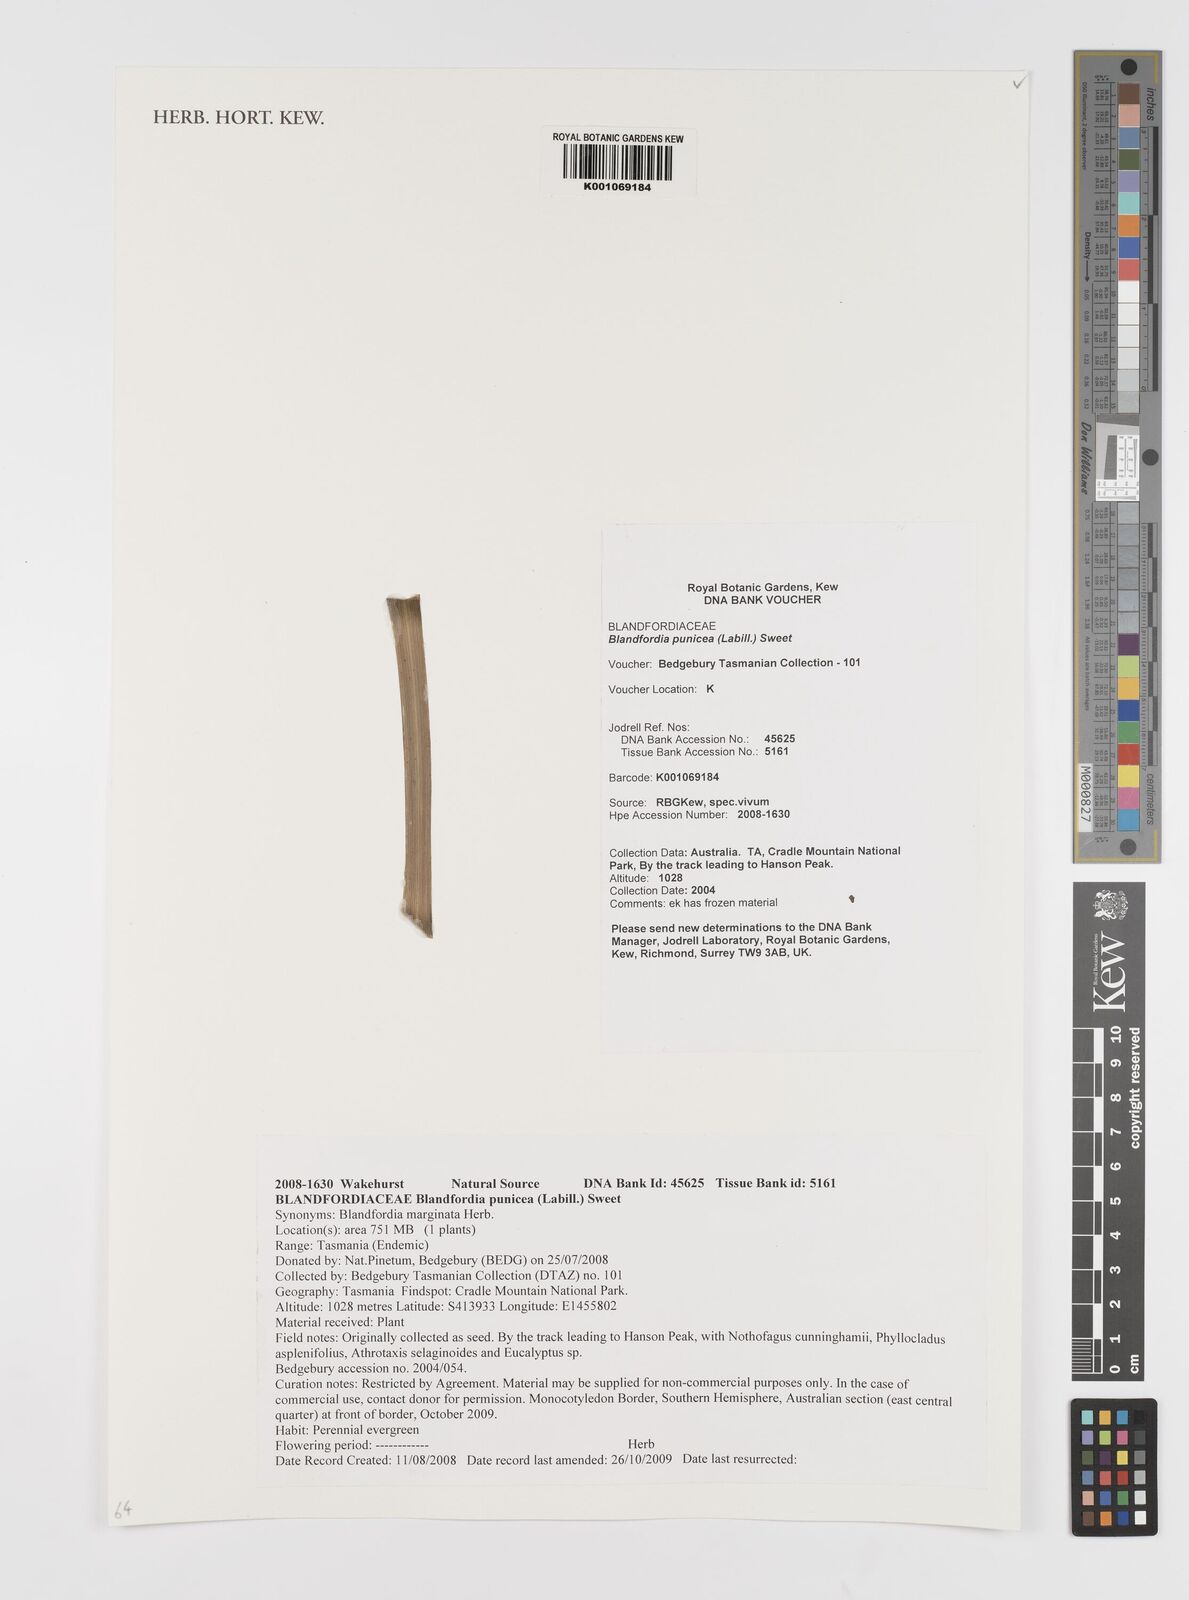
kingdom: Plantae
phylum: Tracheophyta
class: Liliopsida
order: Asparagales
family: Blandfordiaceae
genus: Blandfordia
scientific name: Blandfordia punicea
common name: Tasmanian christmas-bell
